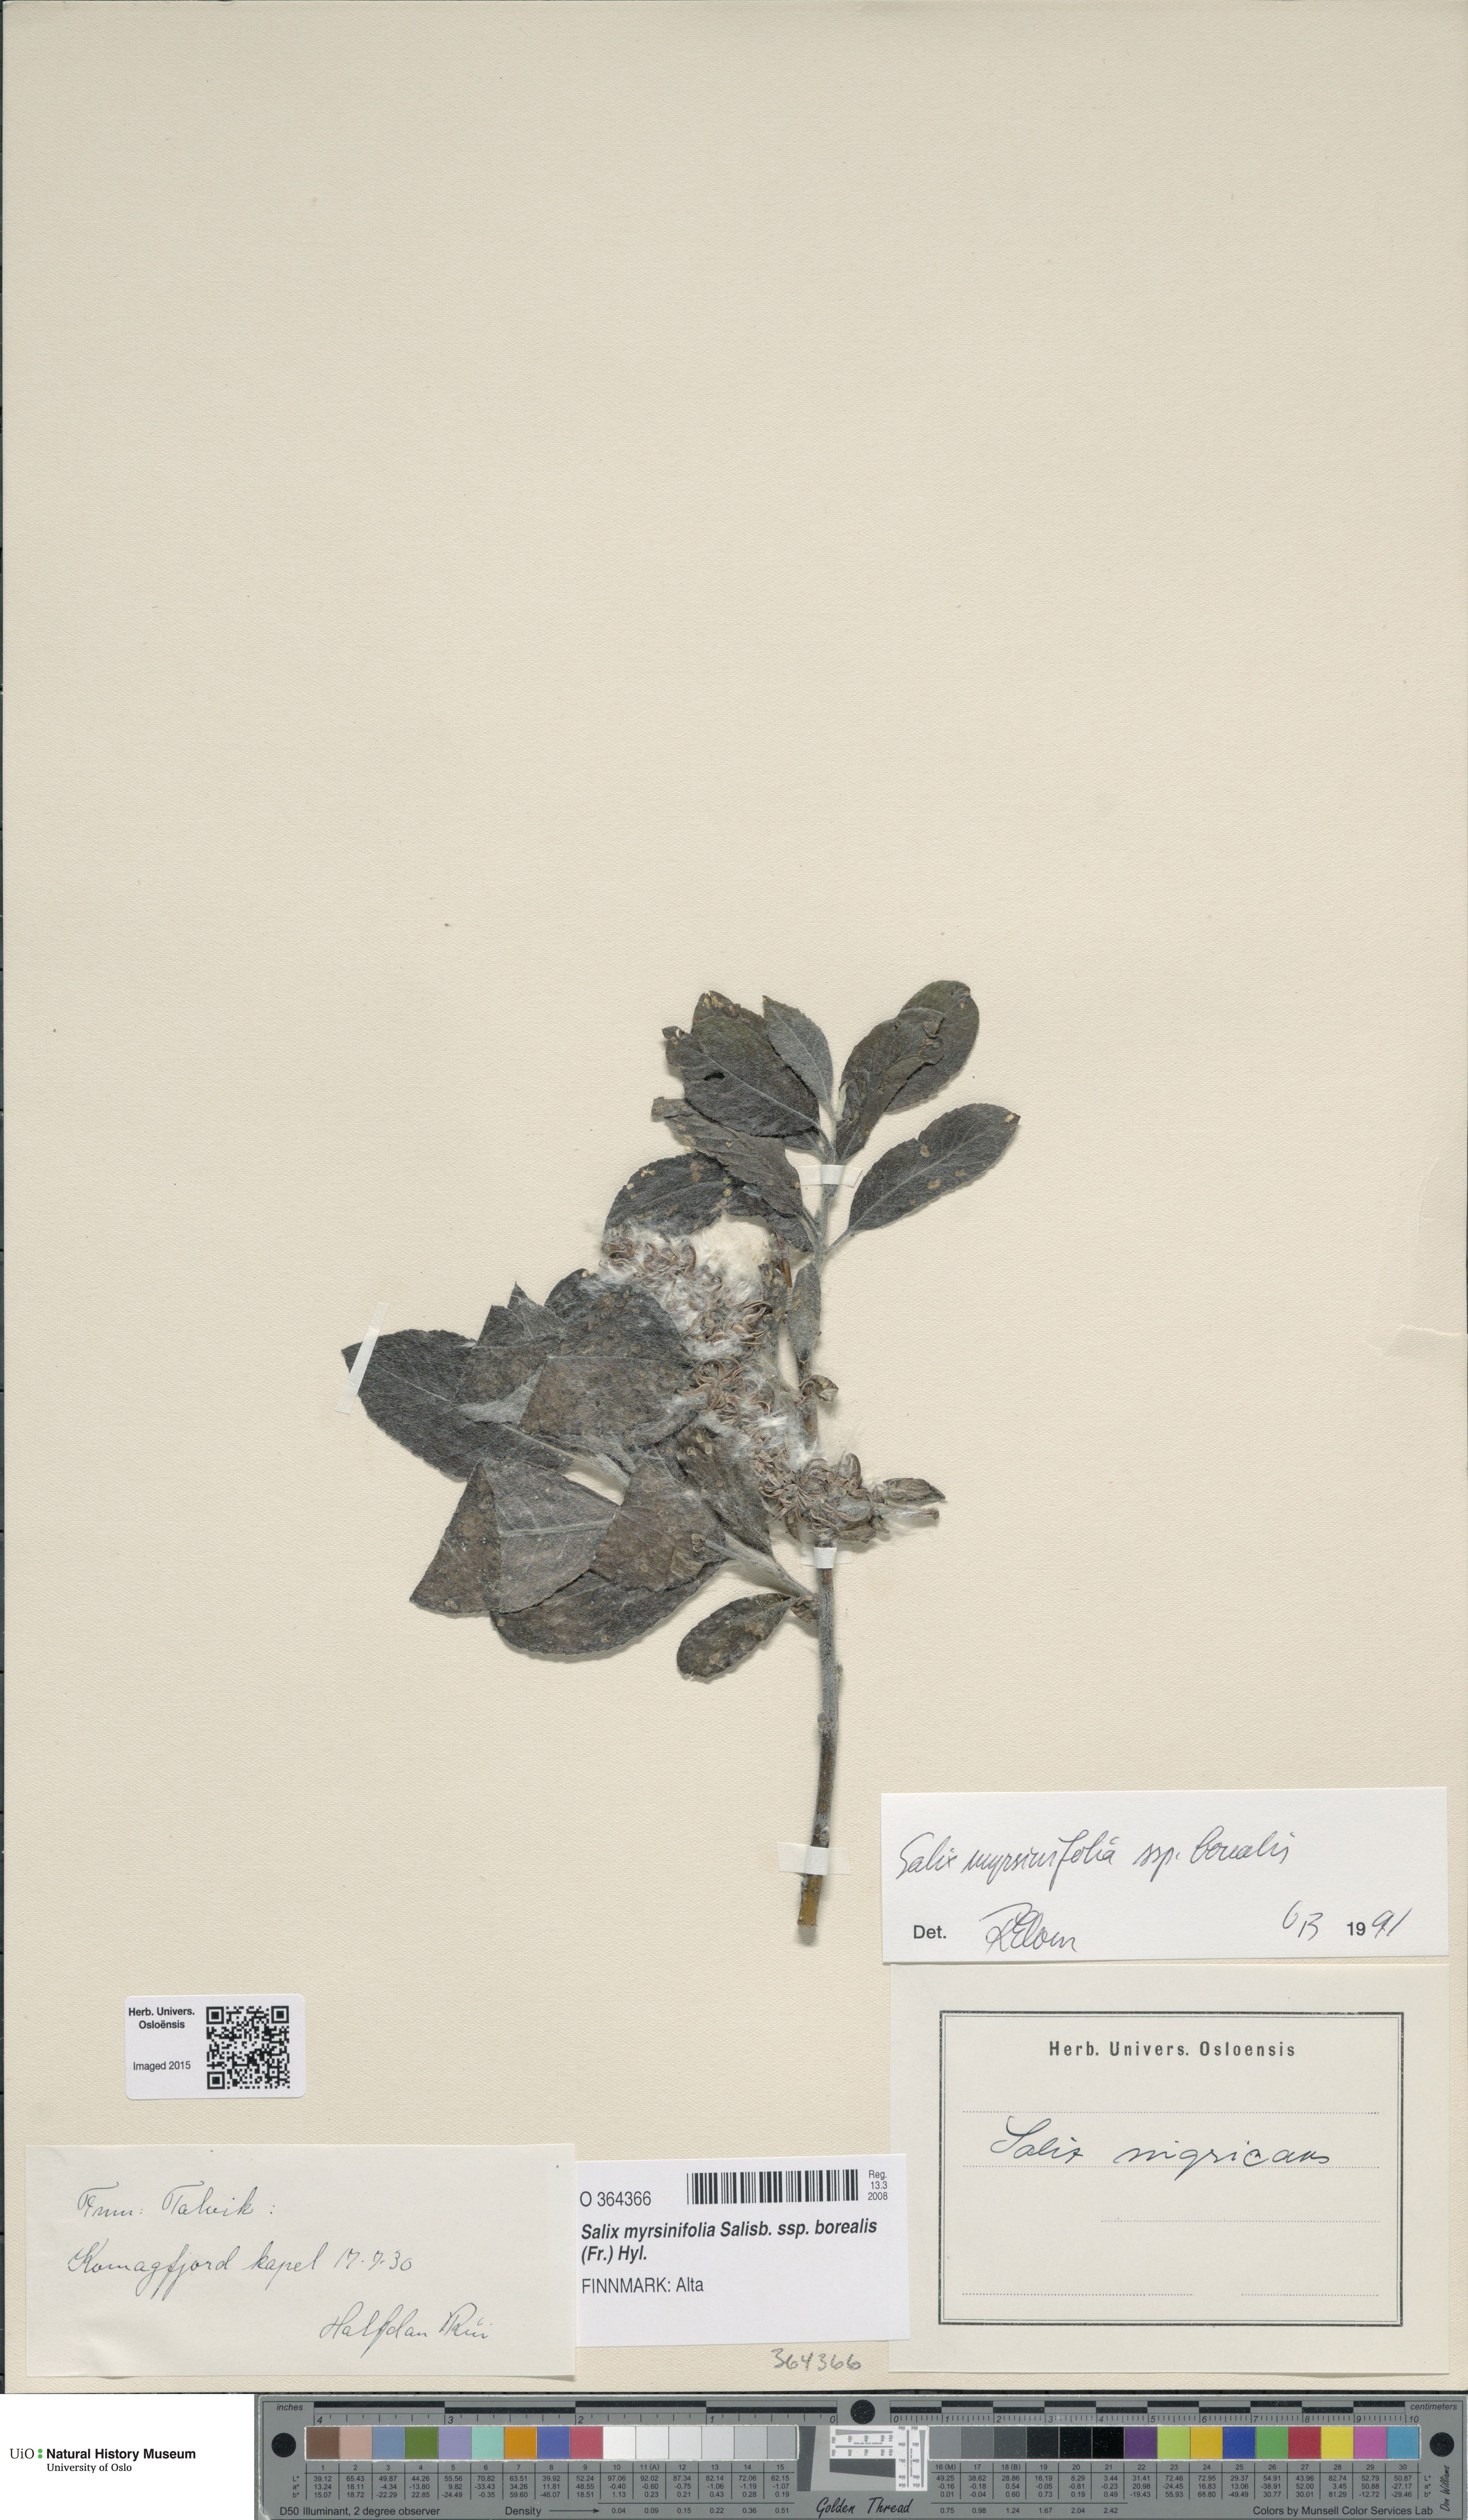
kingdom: Plantae
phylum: Tracheophyta
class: Magnoliopsida
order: Malpighiales
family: Salicaceae
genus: Salix
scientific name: Salix myrsinifolia
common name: Dark-leaved willow
